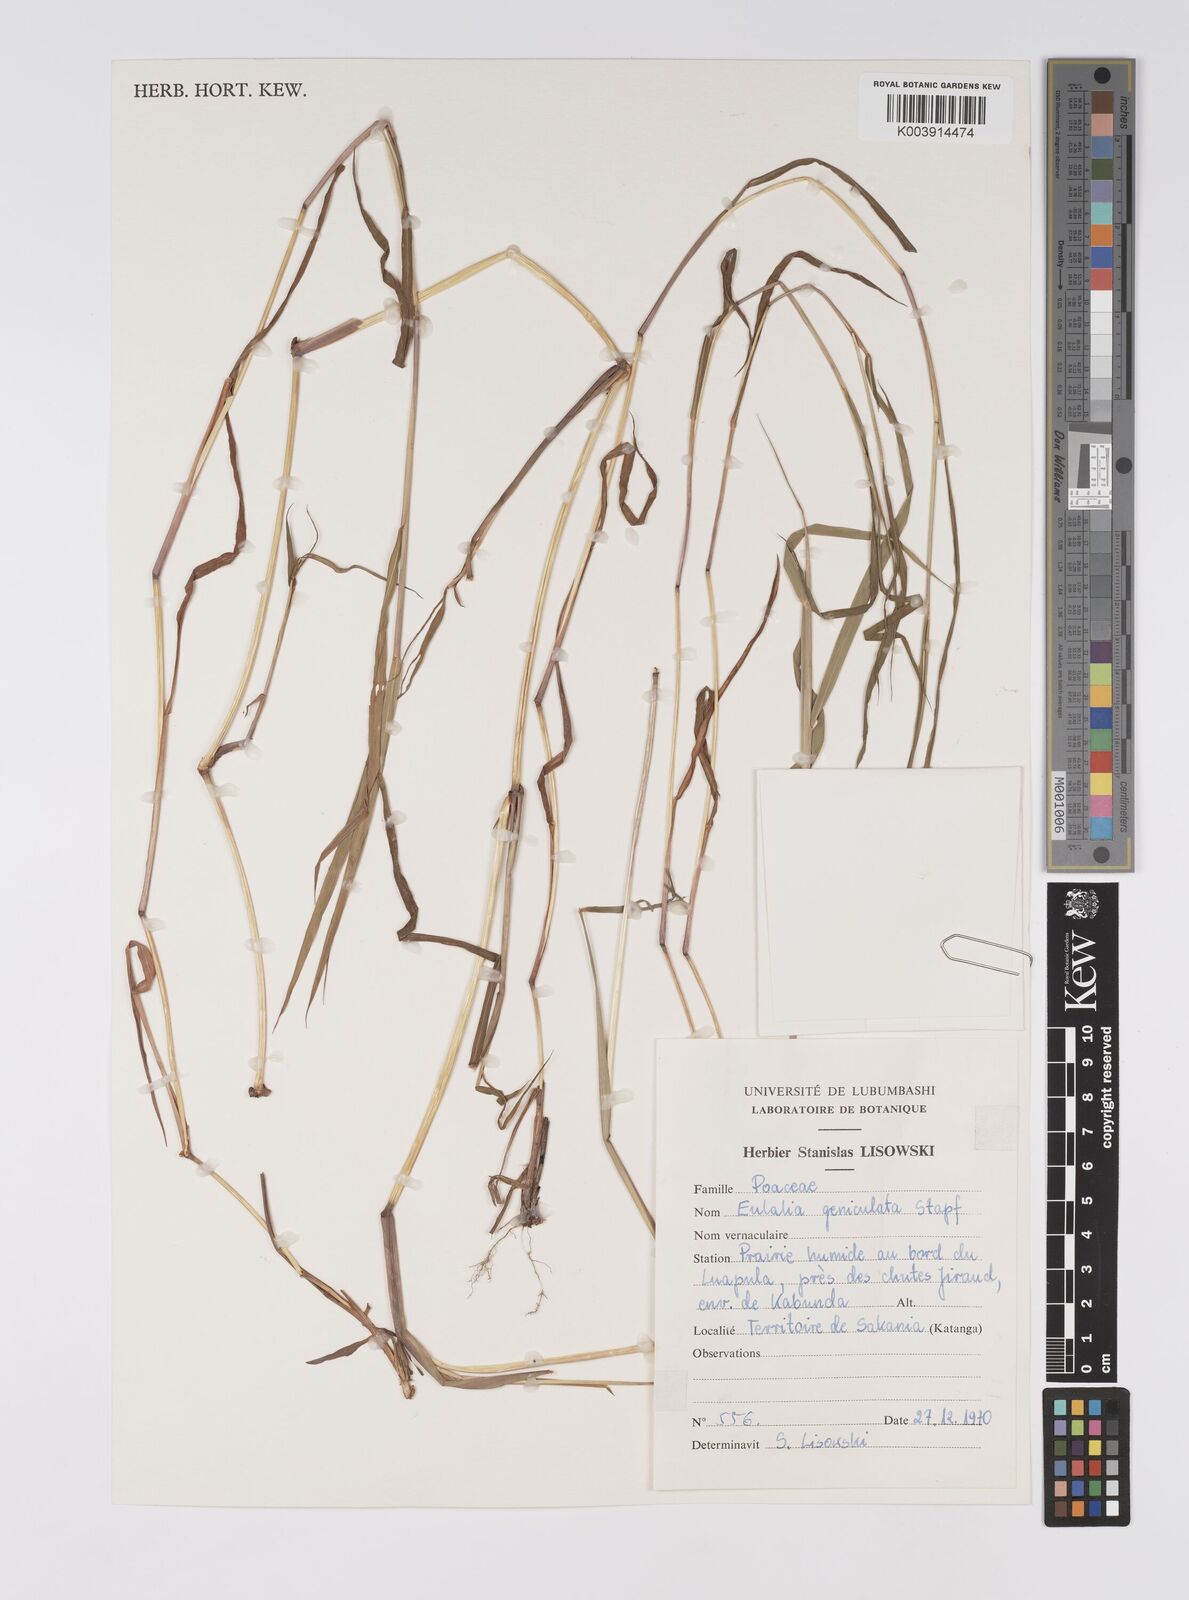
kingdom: Plantae
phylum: Tracheophyta
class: Liliopsida
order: Poales
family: Poaceae
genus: Eulalia
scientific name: Eulalia aurea
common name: Silky browntop
